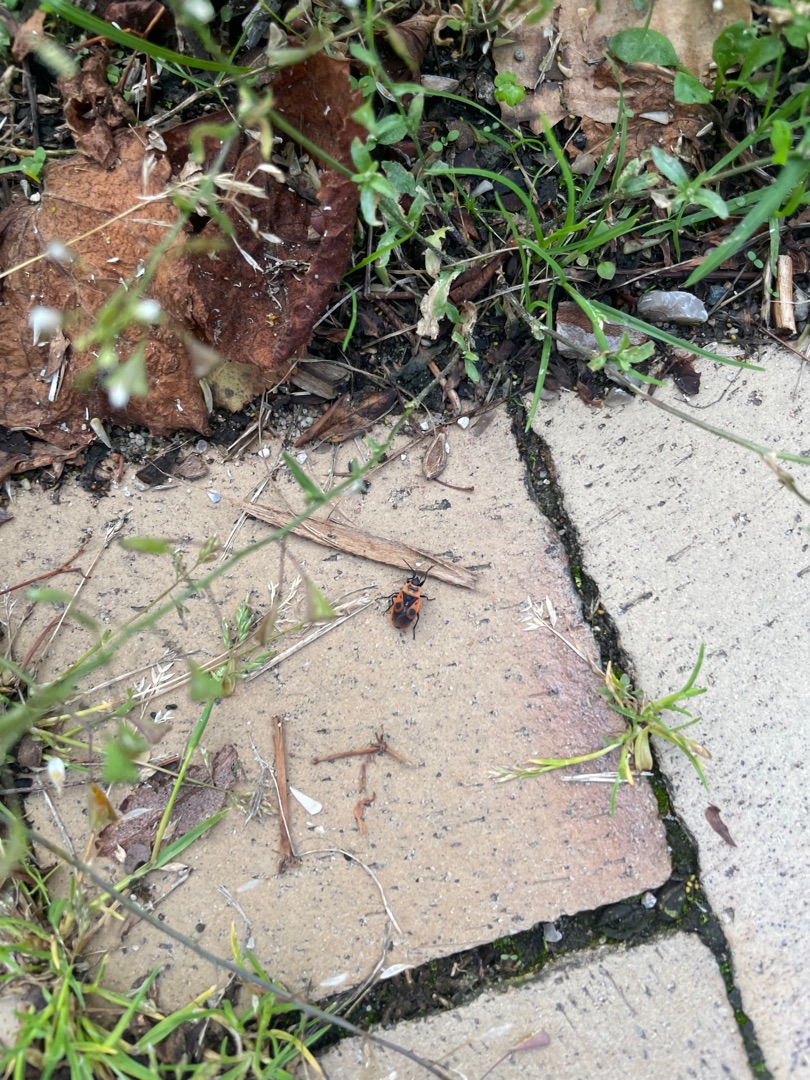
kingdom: Animalia
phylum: Arthropoda
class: Insecta
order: Hemiptera
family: Pyrrhocoridae
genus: Pyrrhocoris
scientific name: Pyrrhocoris apterus
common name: Ildtæge
